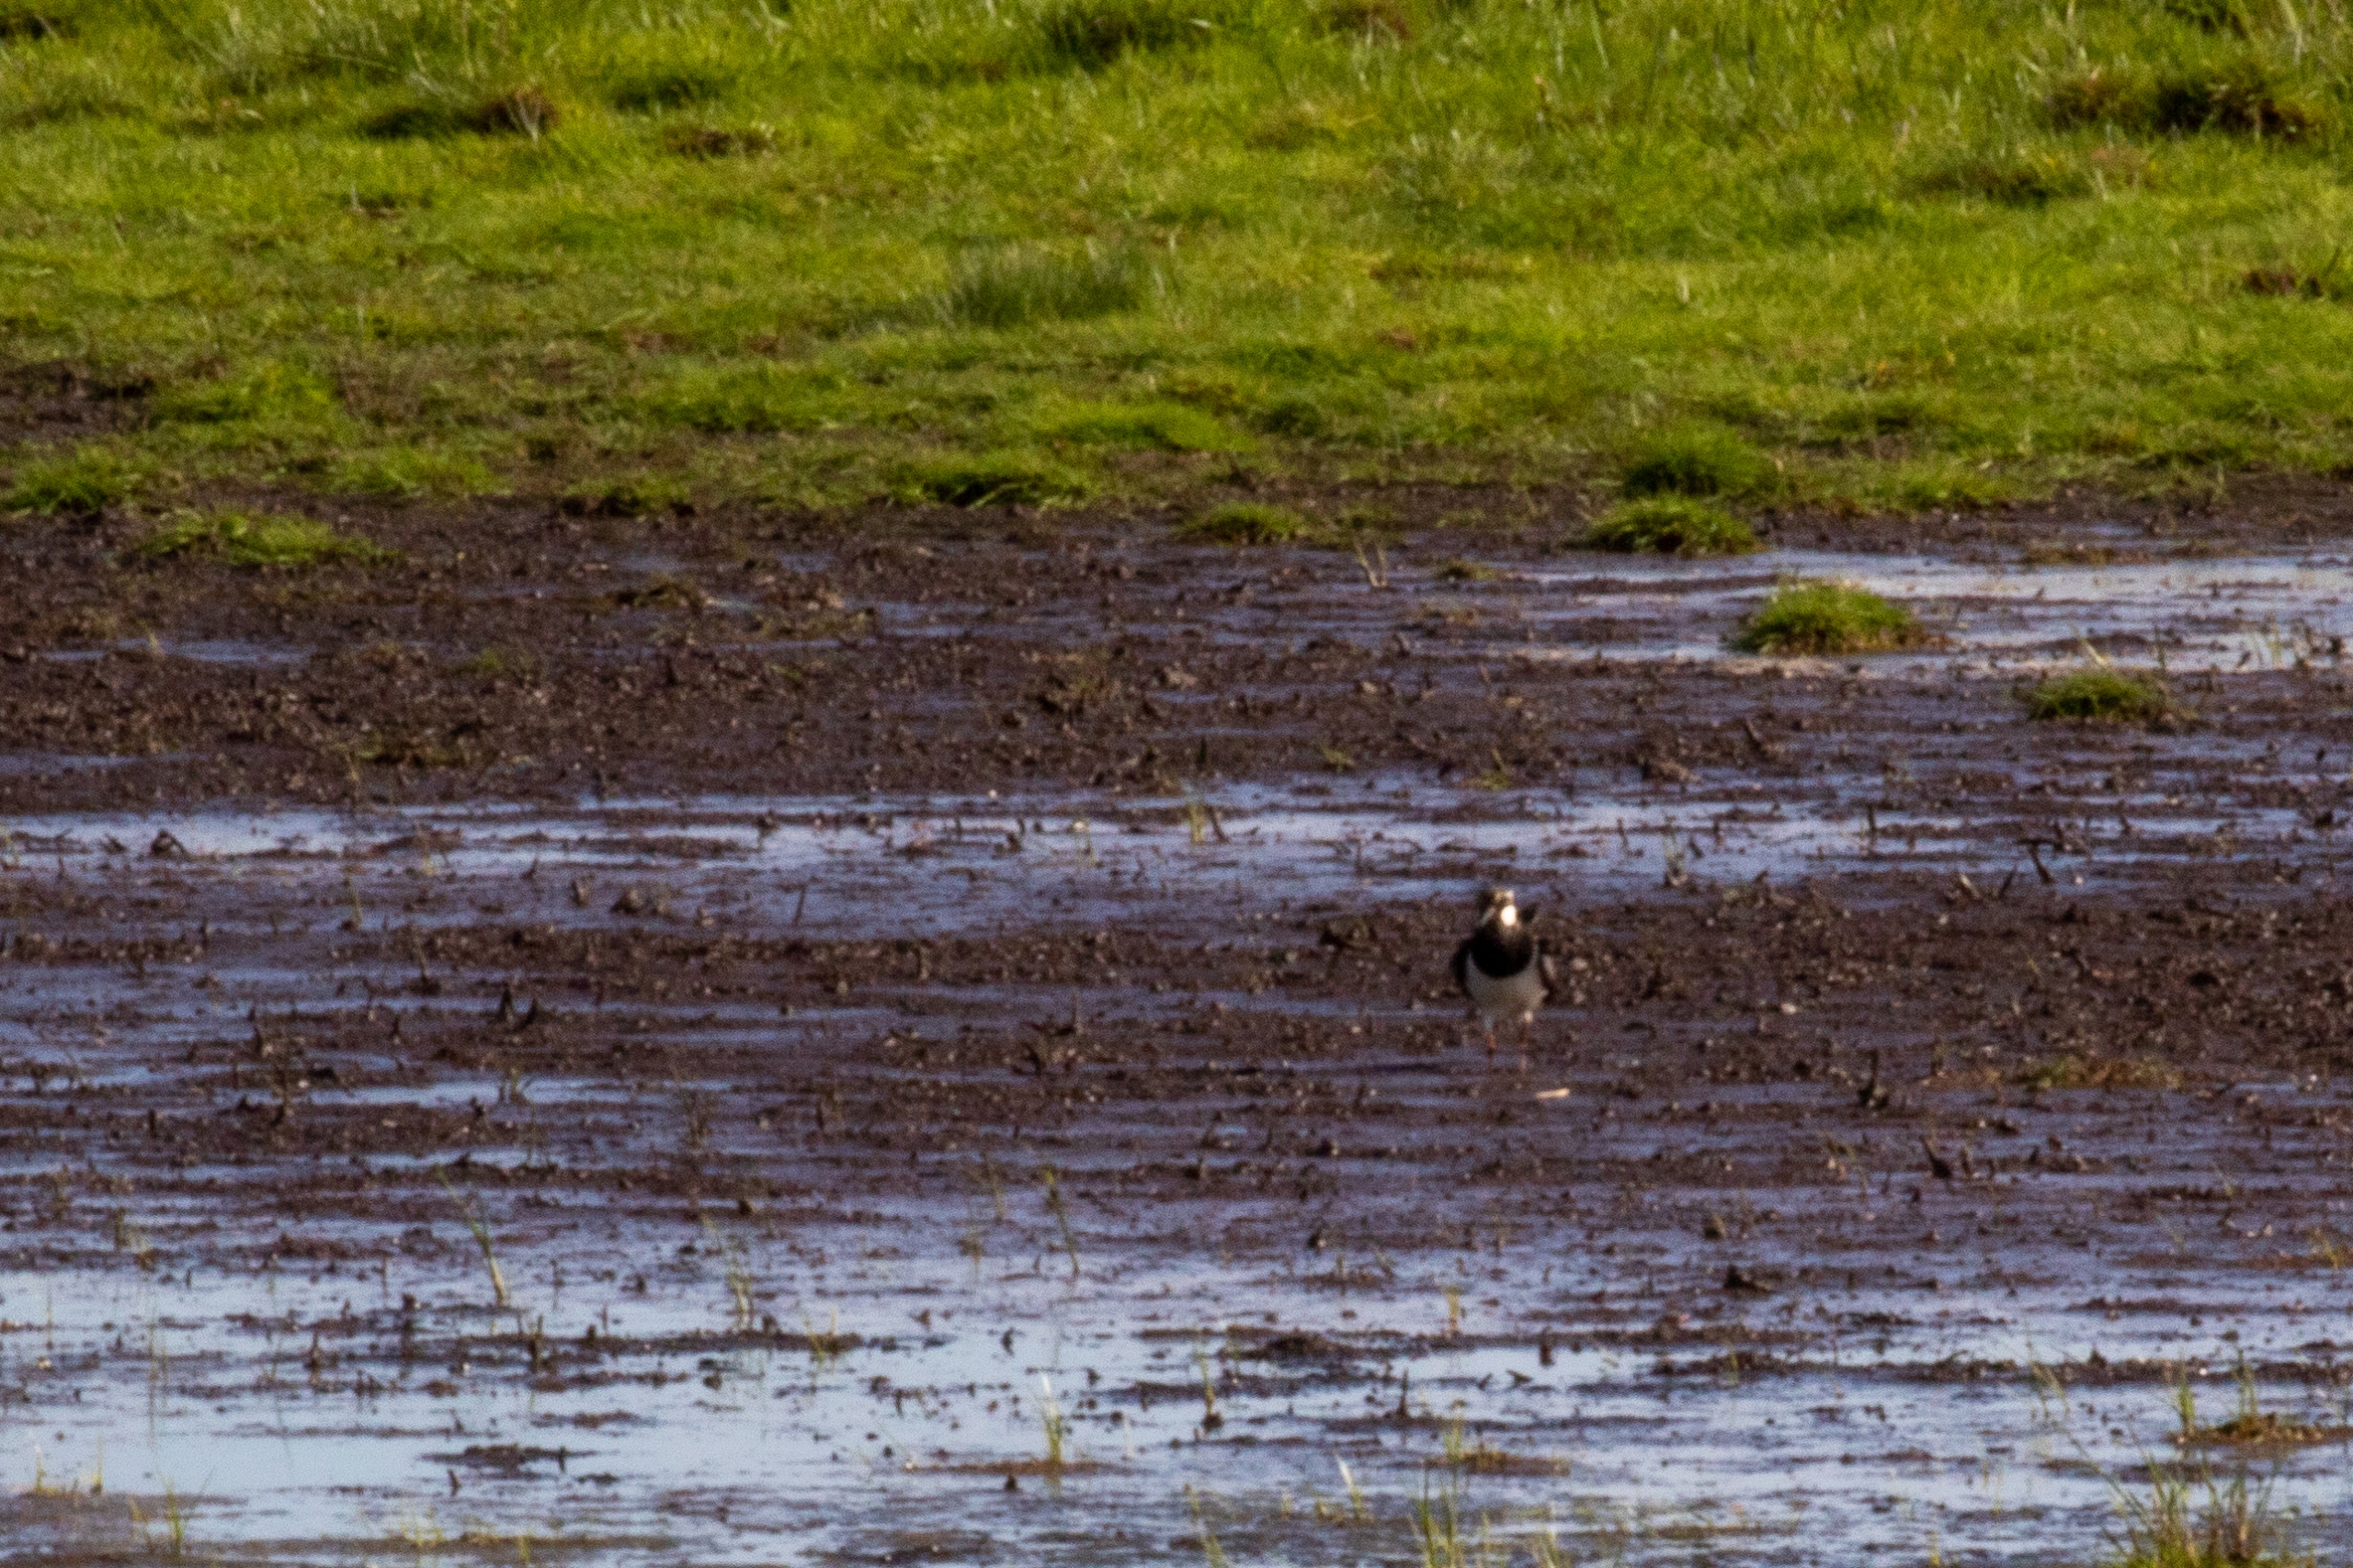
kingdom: Animalia
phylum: Chordata
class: Aves
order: Charadriiformes
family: Charadriidae
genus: Vanellus
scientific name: Vanellus vanellus
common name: Vibe
